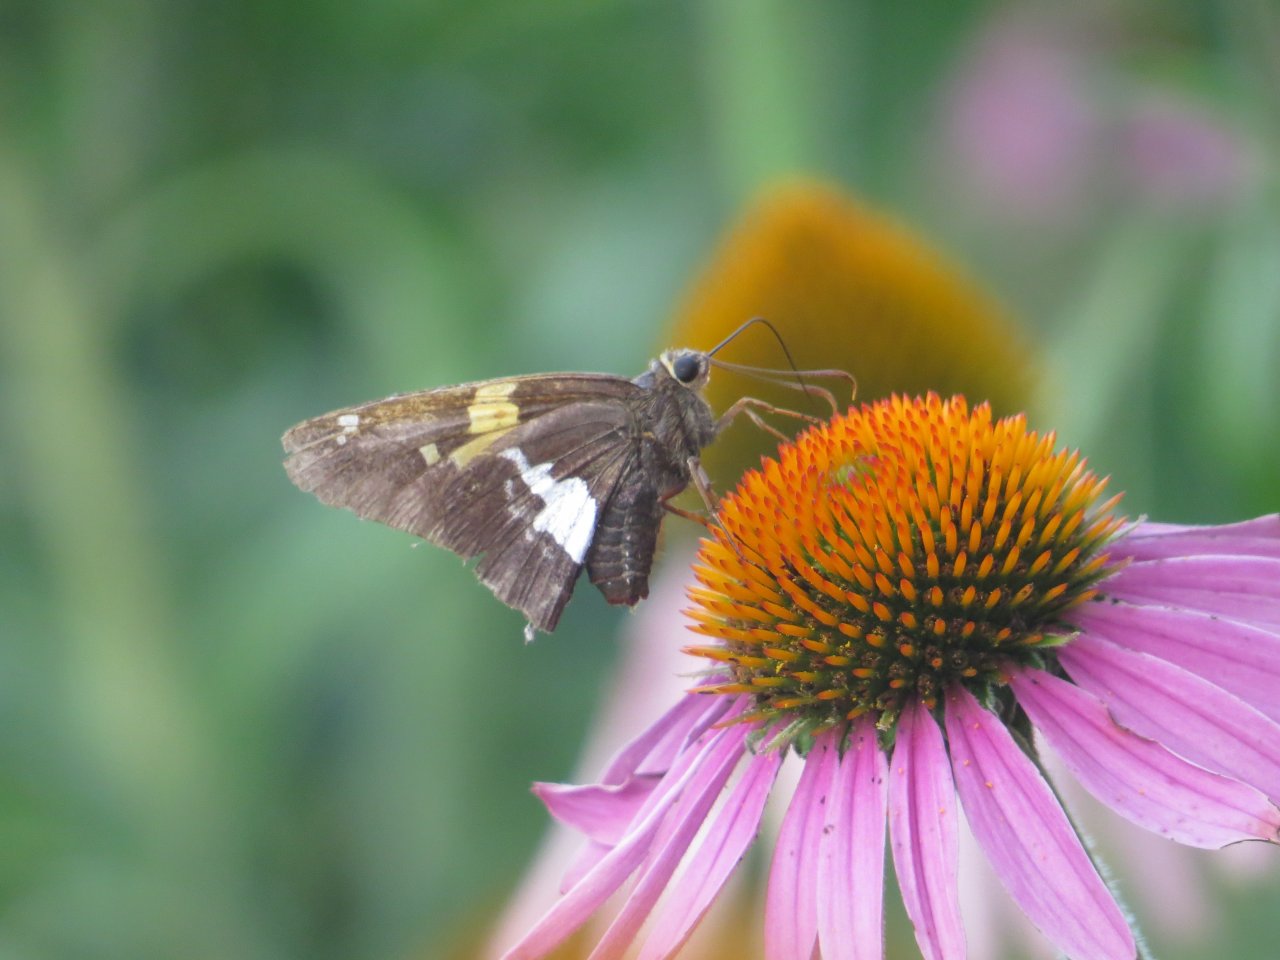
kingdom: Animalia
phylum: Arthropoda
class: Insecta
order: Lepidoptera
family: Hesperiidae
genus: Epargyreus
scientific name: Epargyreus clarus
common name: Silver-spotted Skipper
